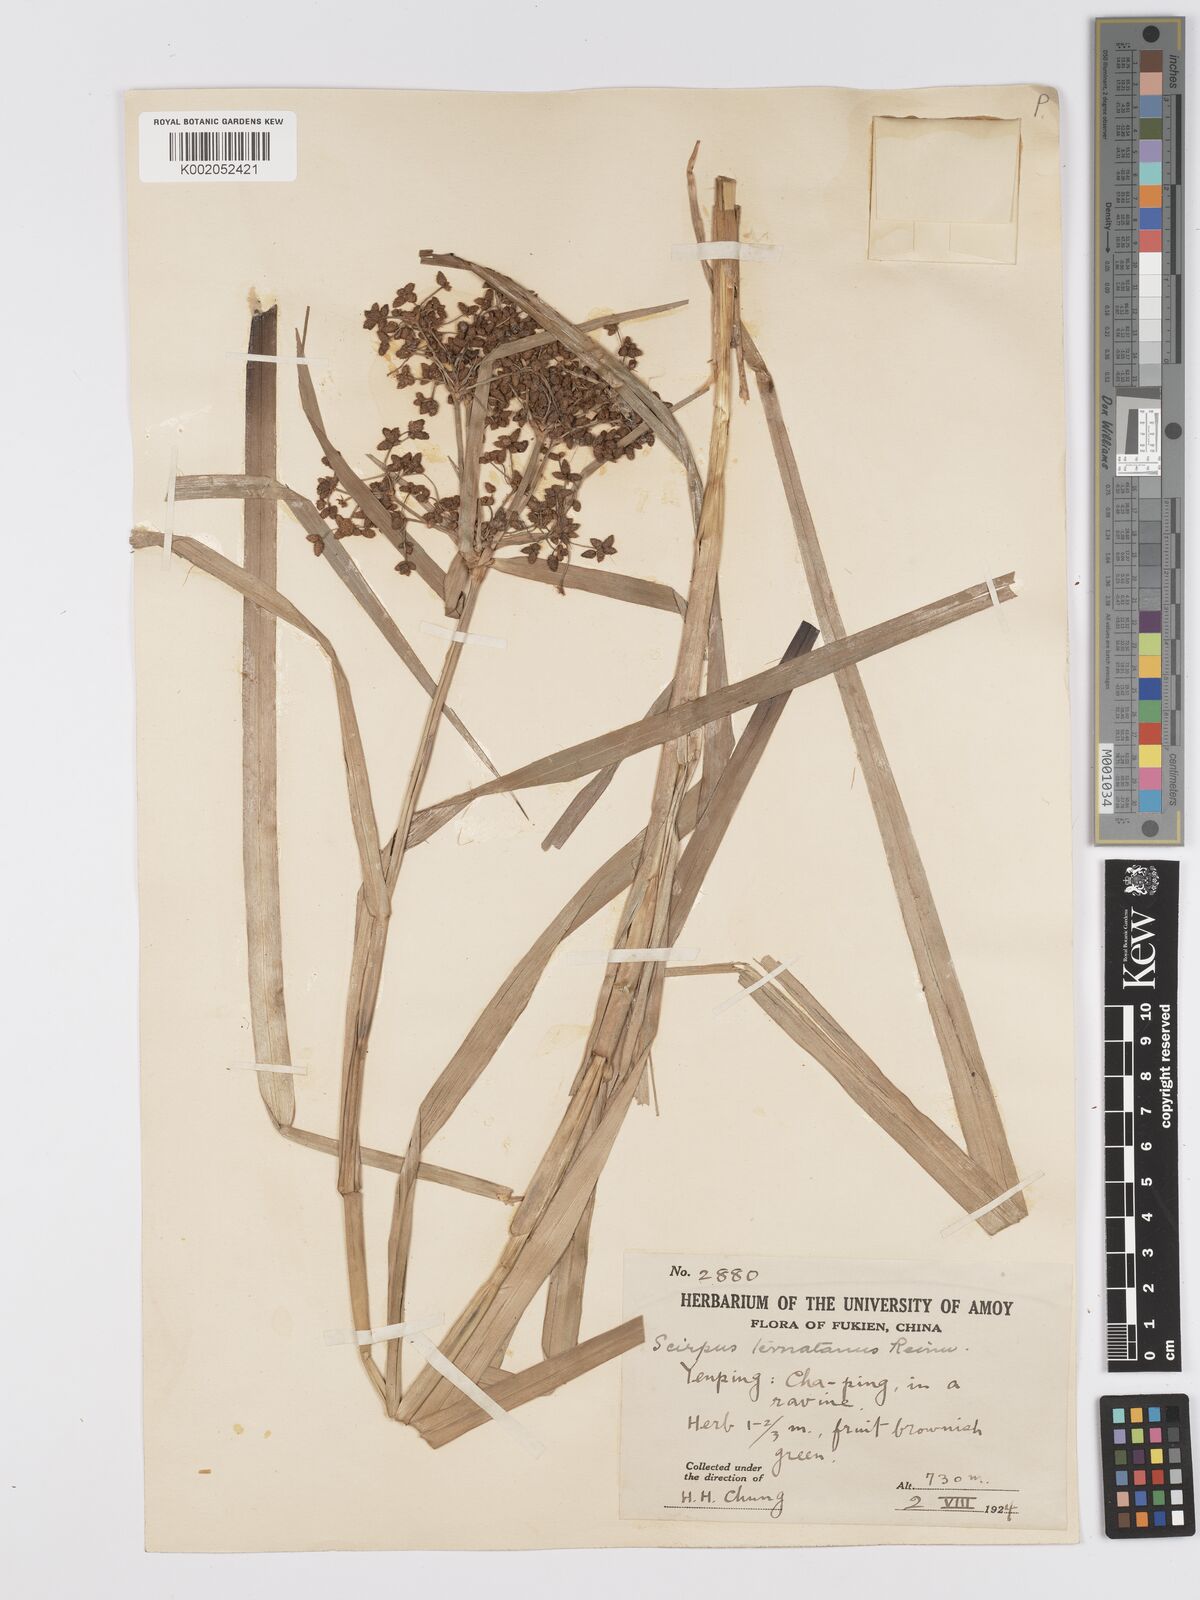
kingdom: Plantae
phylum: Tracheophyta
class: Liliopsida
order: Poales
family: Cyperaceae
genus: Scirpus
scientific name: Scirpus ternatanus
